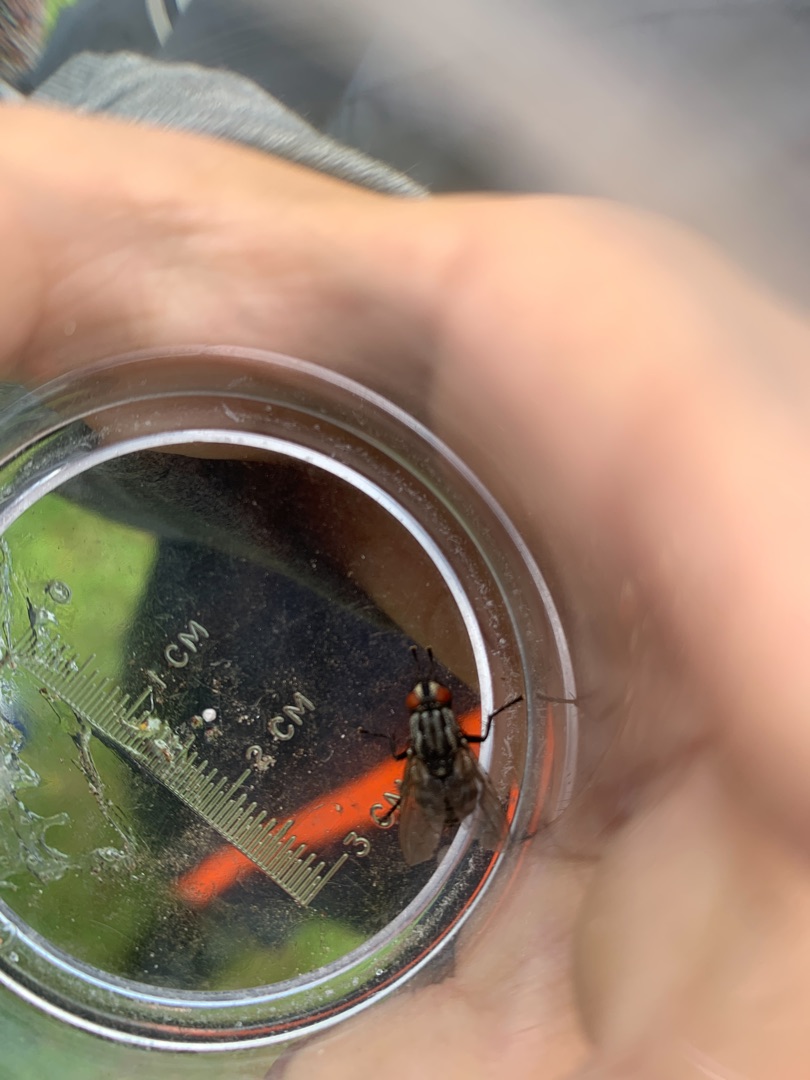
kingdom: Animalia
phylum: Arthropoda
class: Insecta
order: Diptera
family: Sarcophagidae
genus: Sarcophaga
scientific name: Sarcophaga
